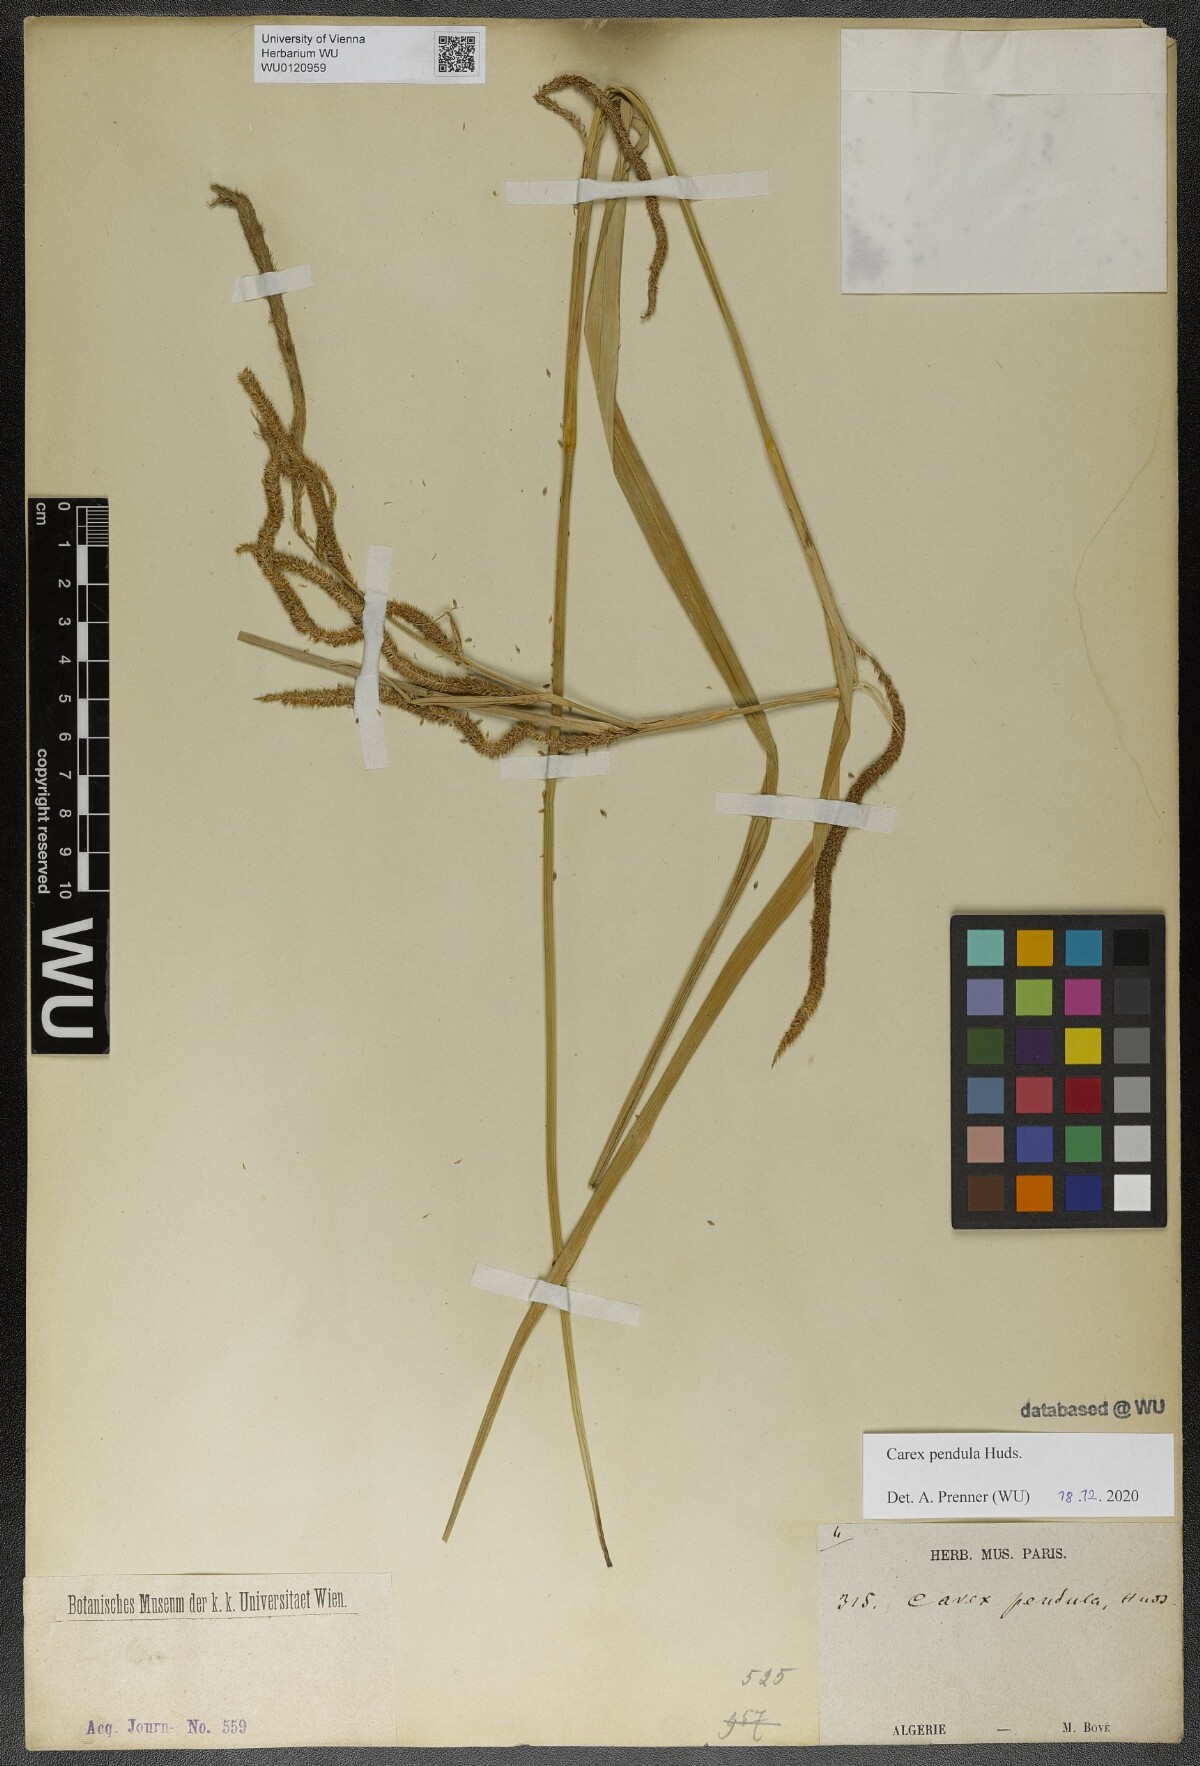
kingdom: Plantae
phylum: Tracheophyta
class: Liliopsida
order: Poales
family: Cyperaceae
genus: Carex
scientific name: Carex pendula
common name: Pendulous sedge
